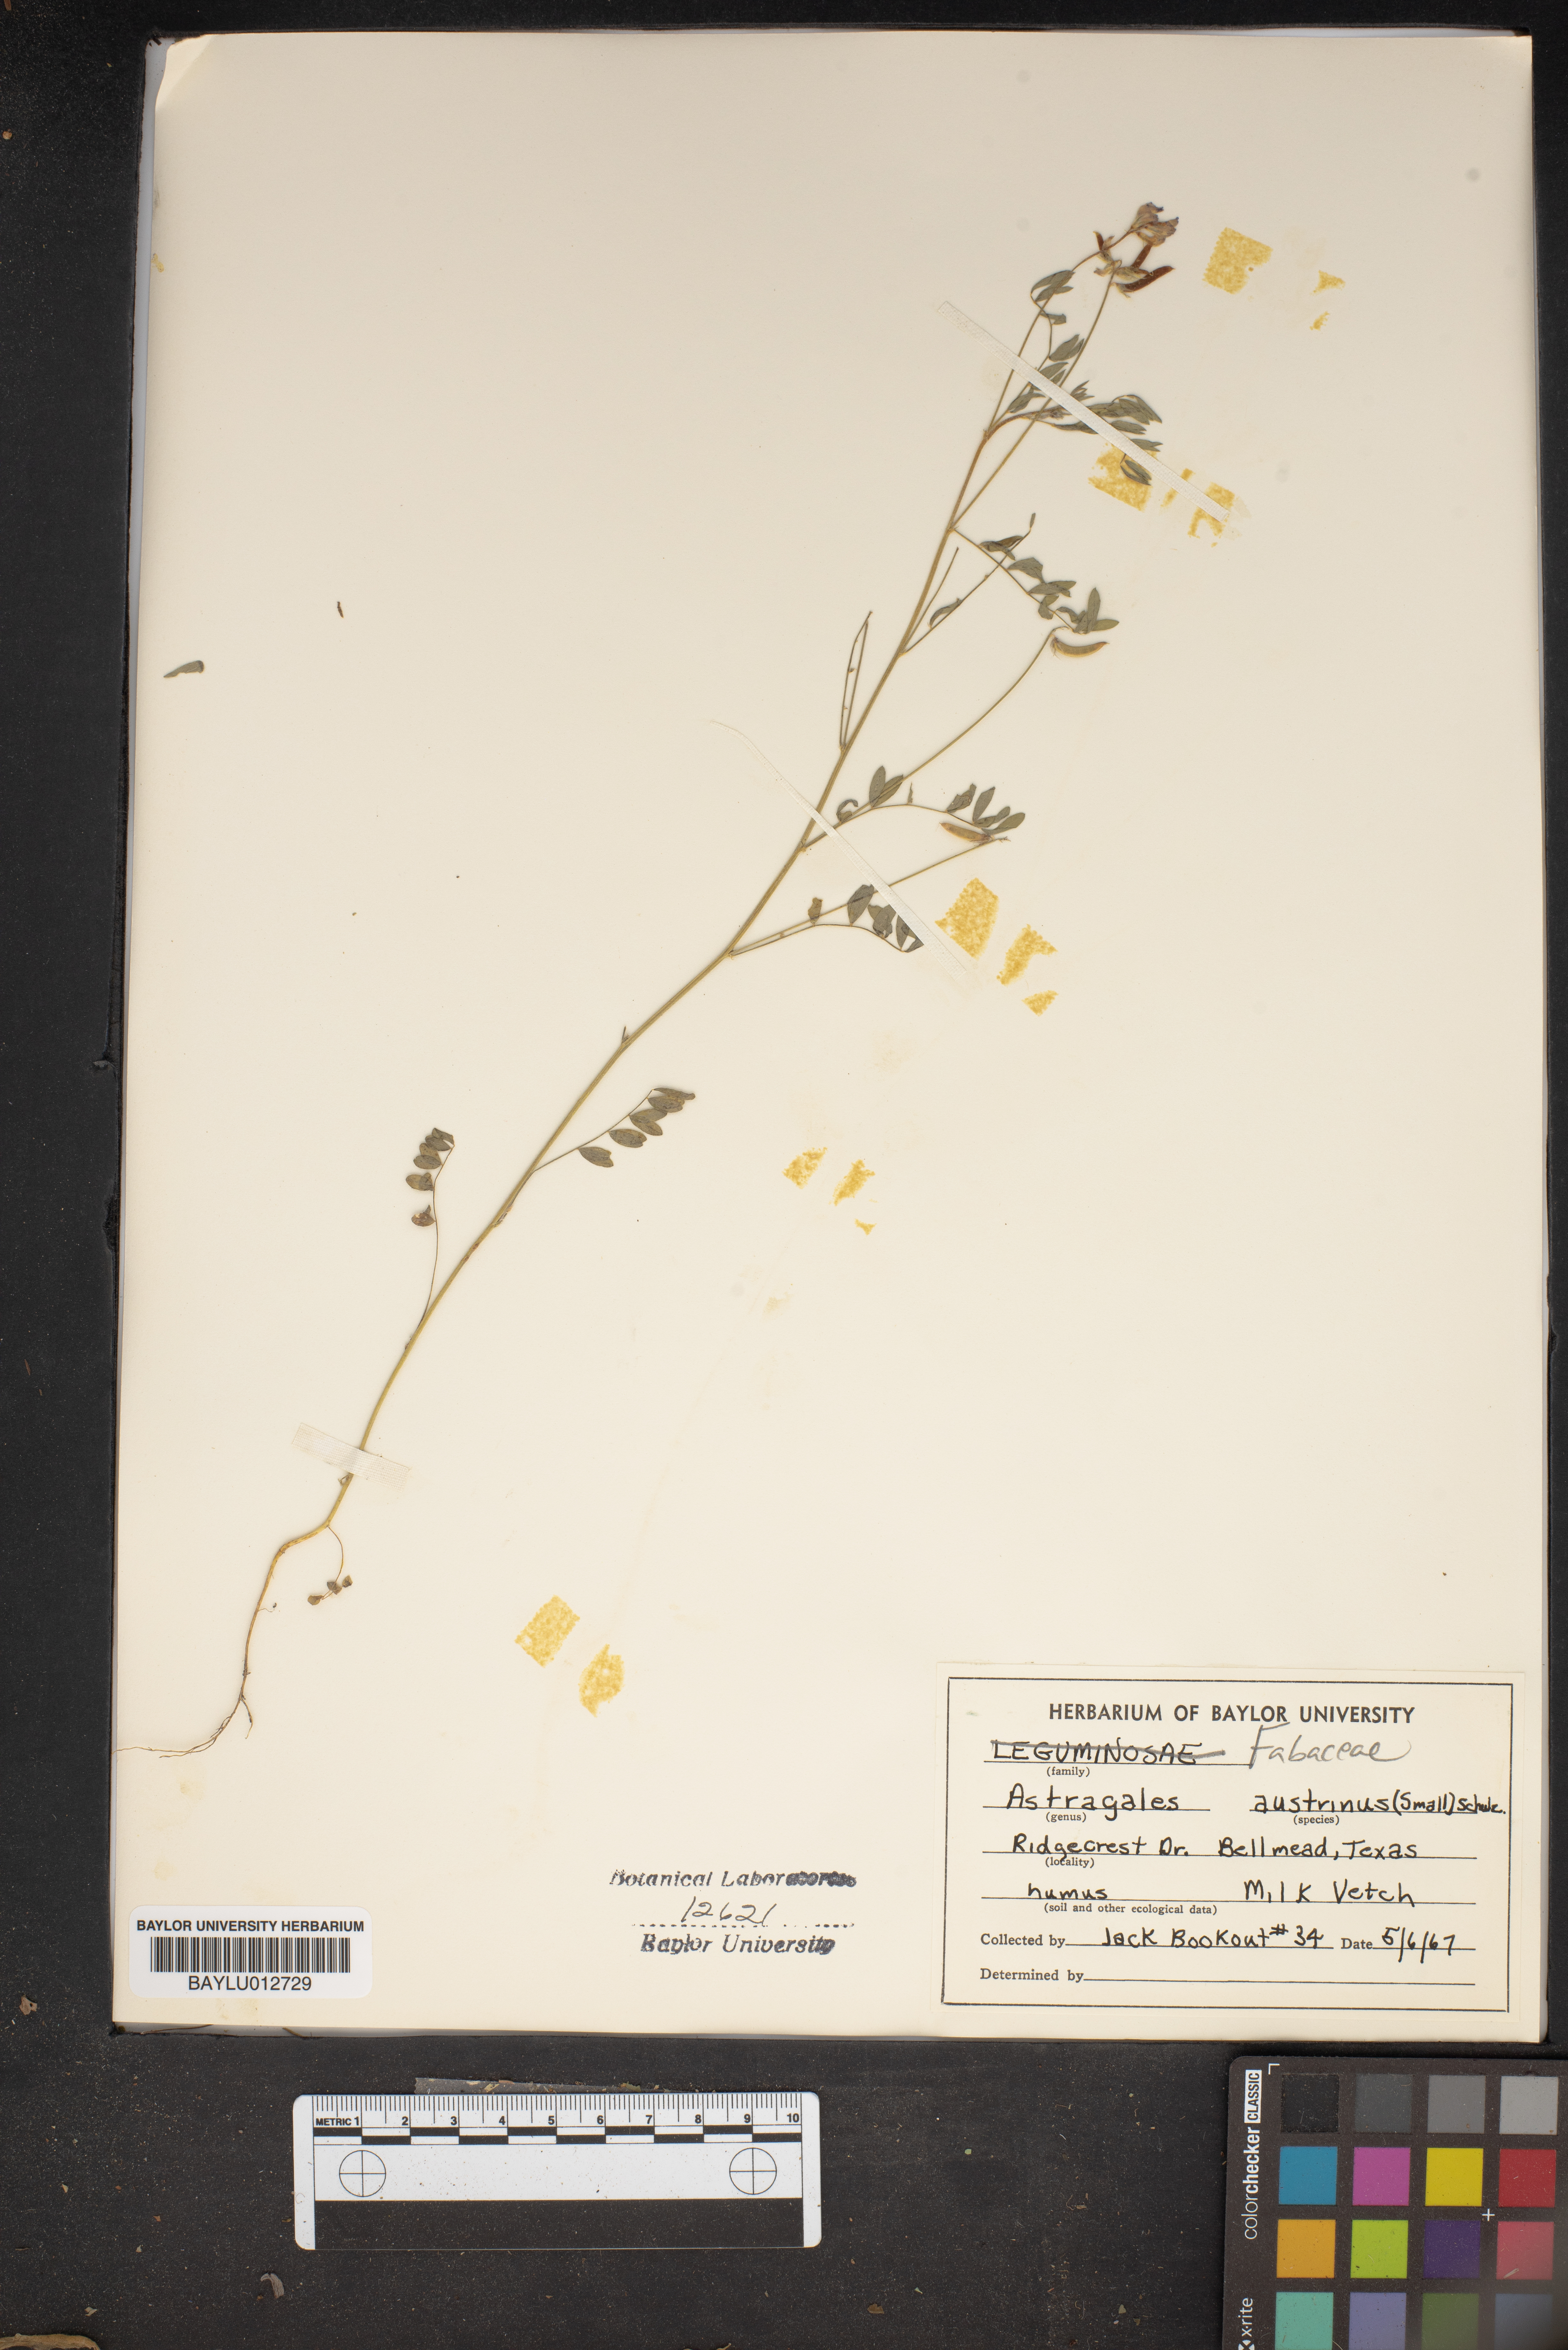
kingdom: Plantae
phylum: Tracheophyta
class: Magnoliopsida
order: Fabales
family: Fabaceae
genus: Astragalus
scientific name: Astragalus nuttallianus
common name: Smallflowered milkvetch
